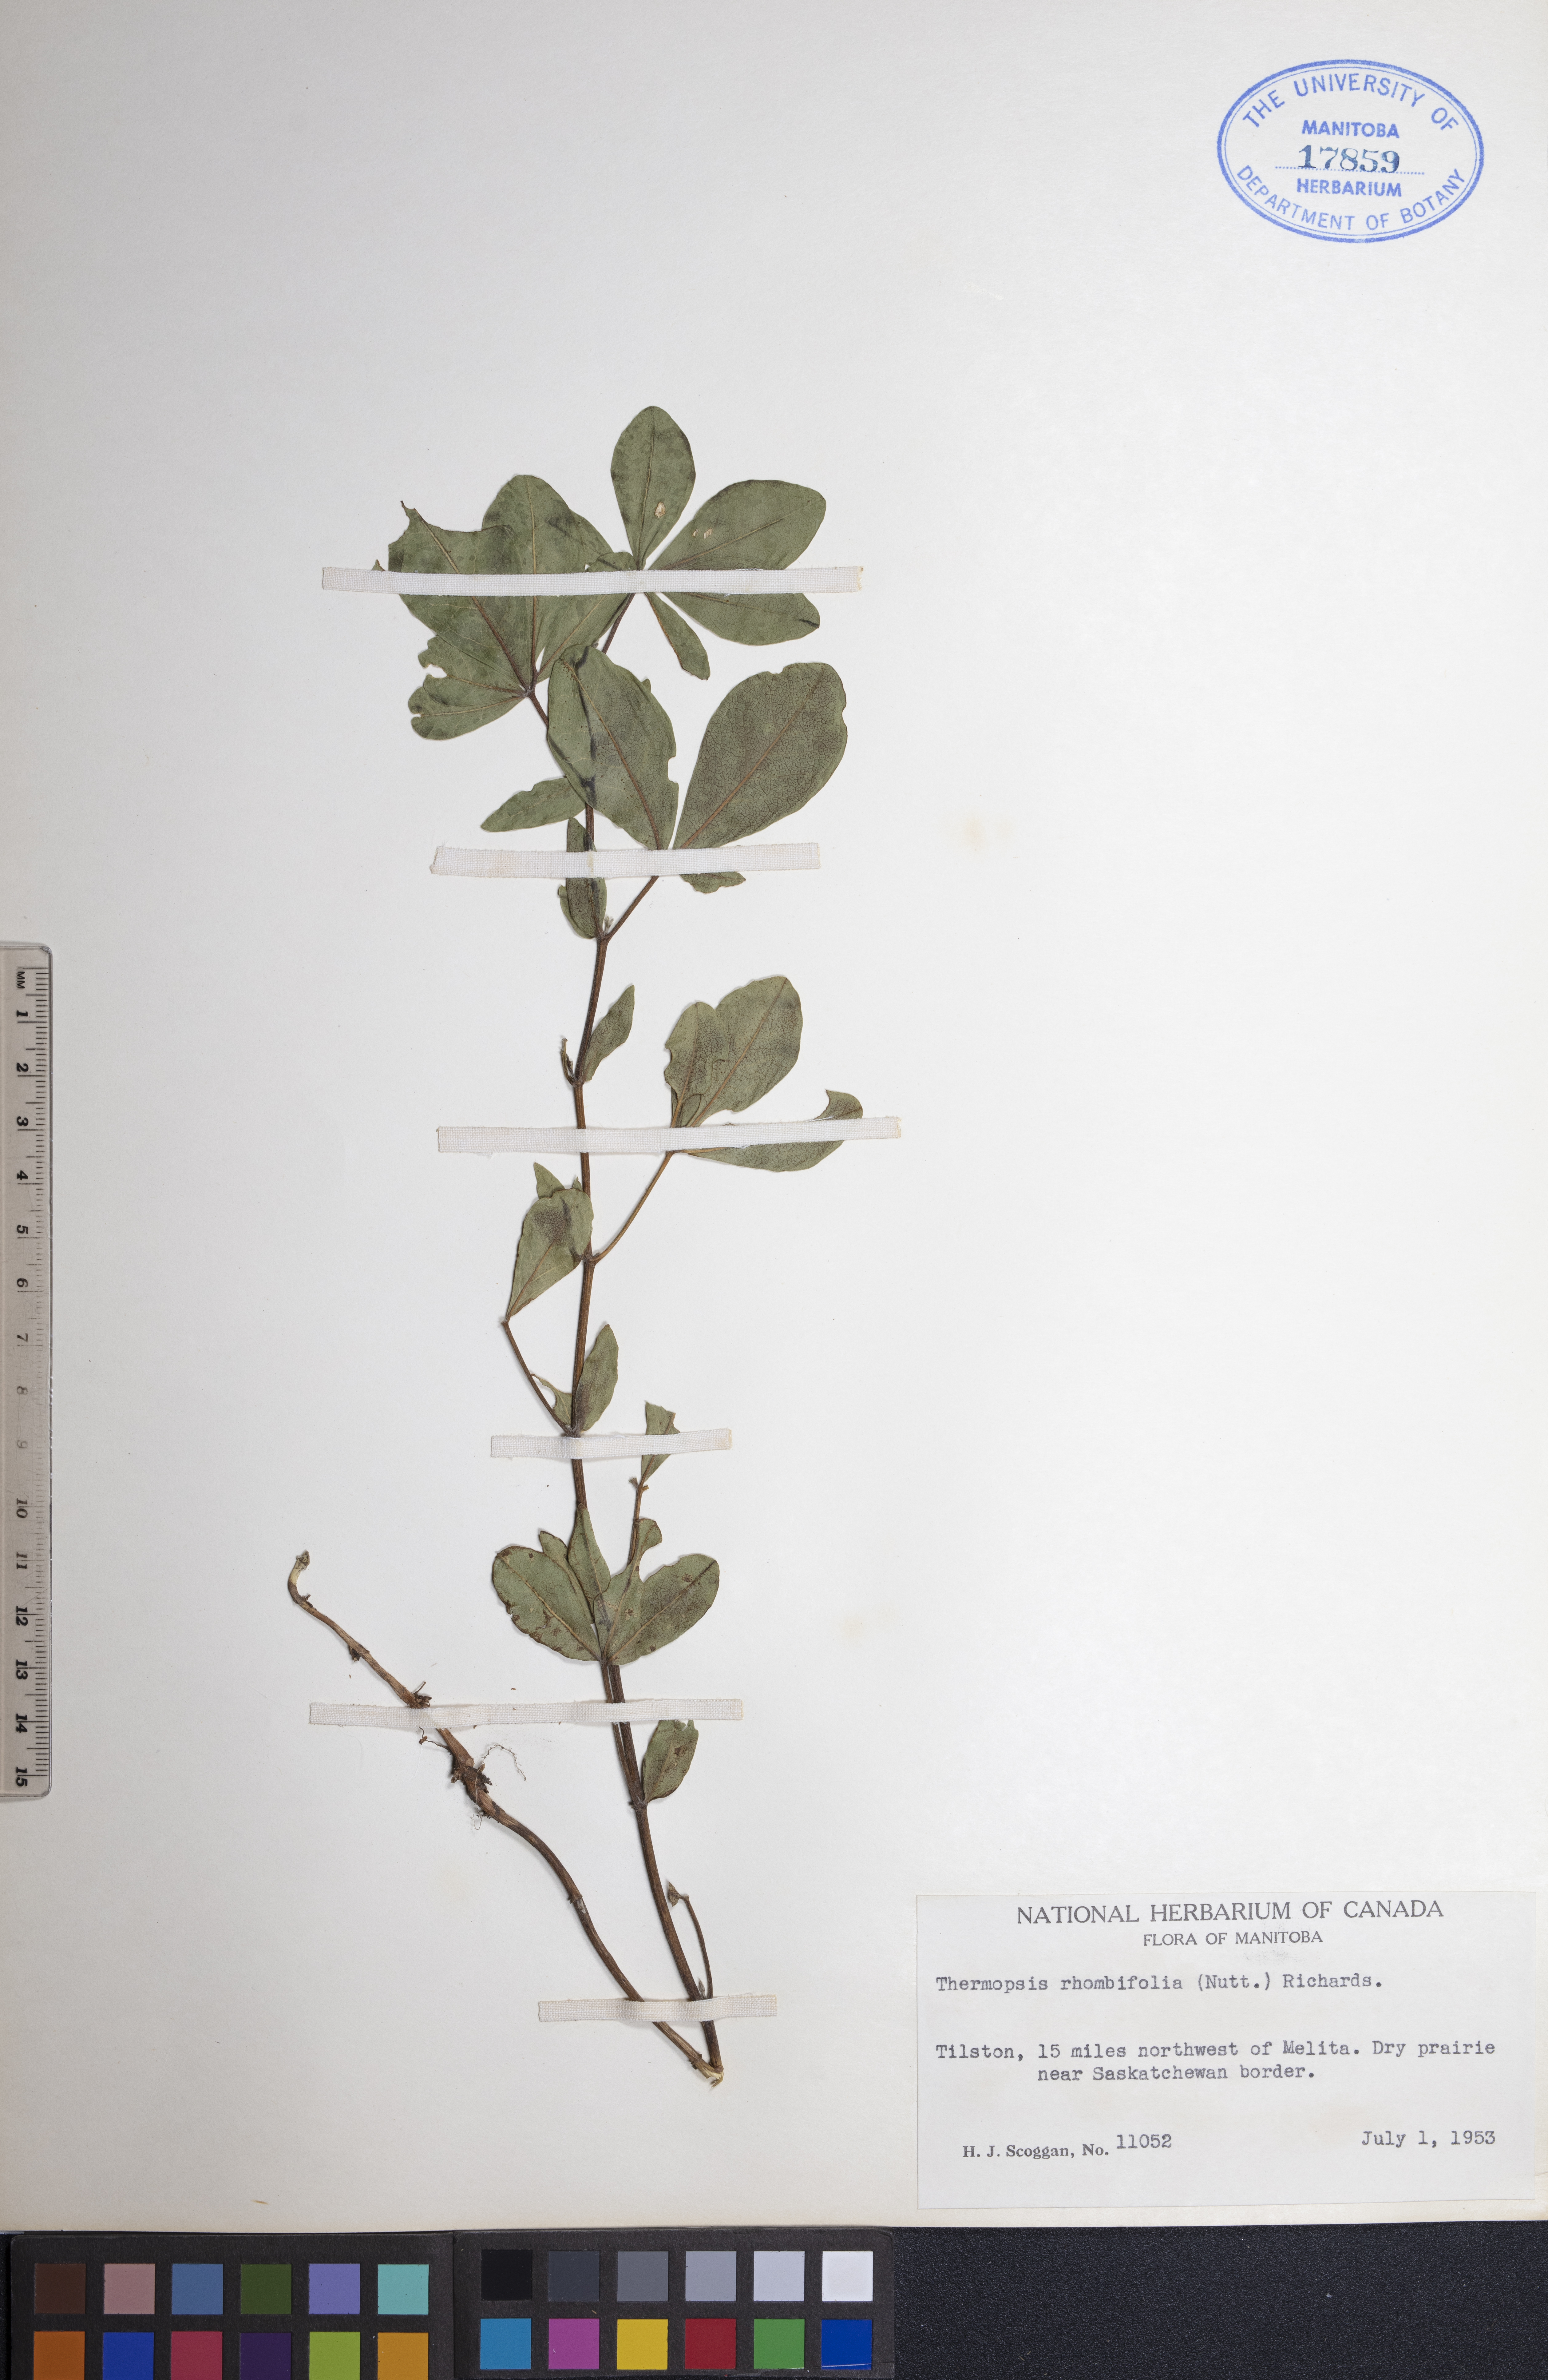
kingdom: Plantae
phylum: Tracheophyta
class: Magnoliopsida
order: Fabales
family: Fabaceae
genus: Thermopsis
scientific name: Thermopsis rhombifolia
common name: Circle-pod-pea
